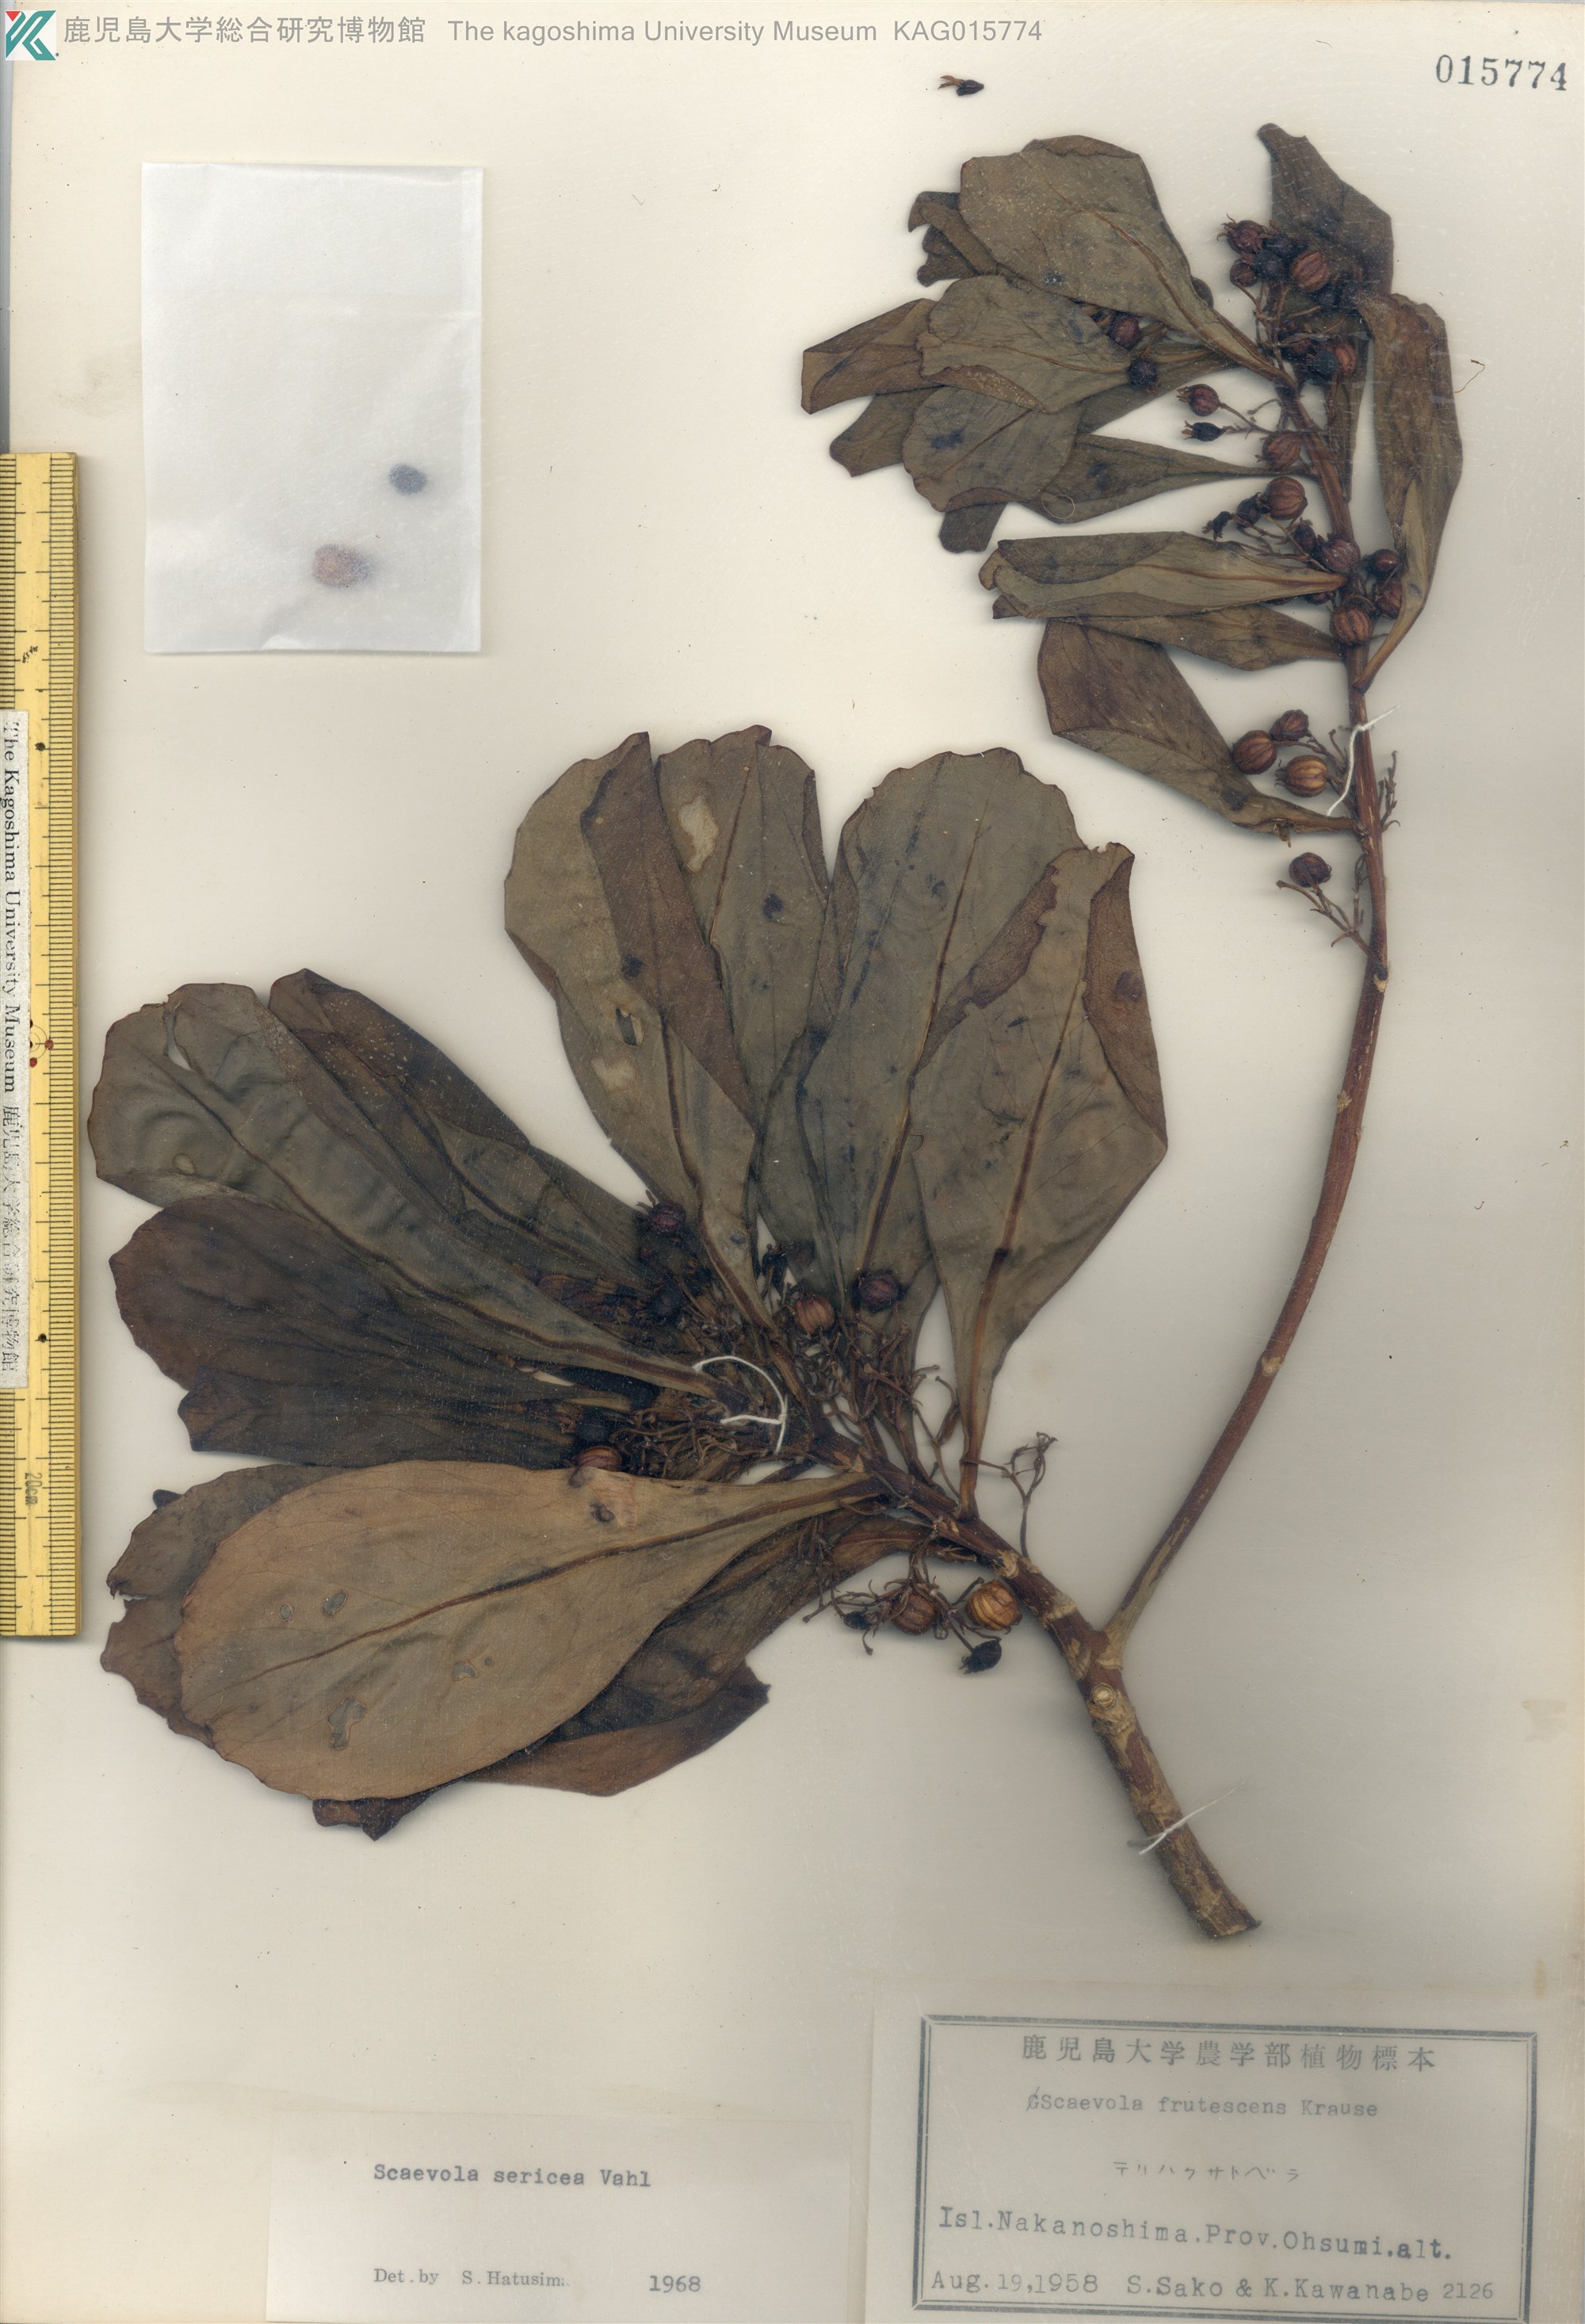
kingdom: Plantae
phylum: Tracheophyta
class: Magnoliopsida
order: Asterales
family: Goodeniaceae
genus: Scaevola
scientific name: Scaevola taccada
